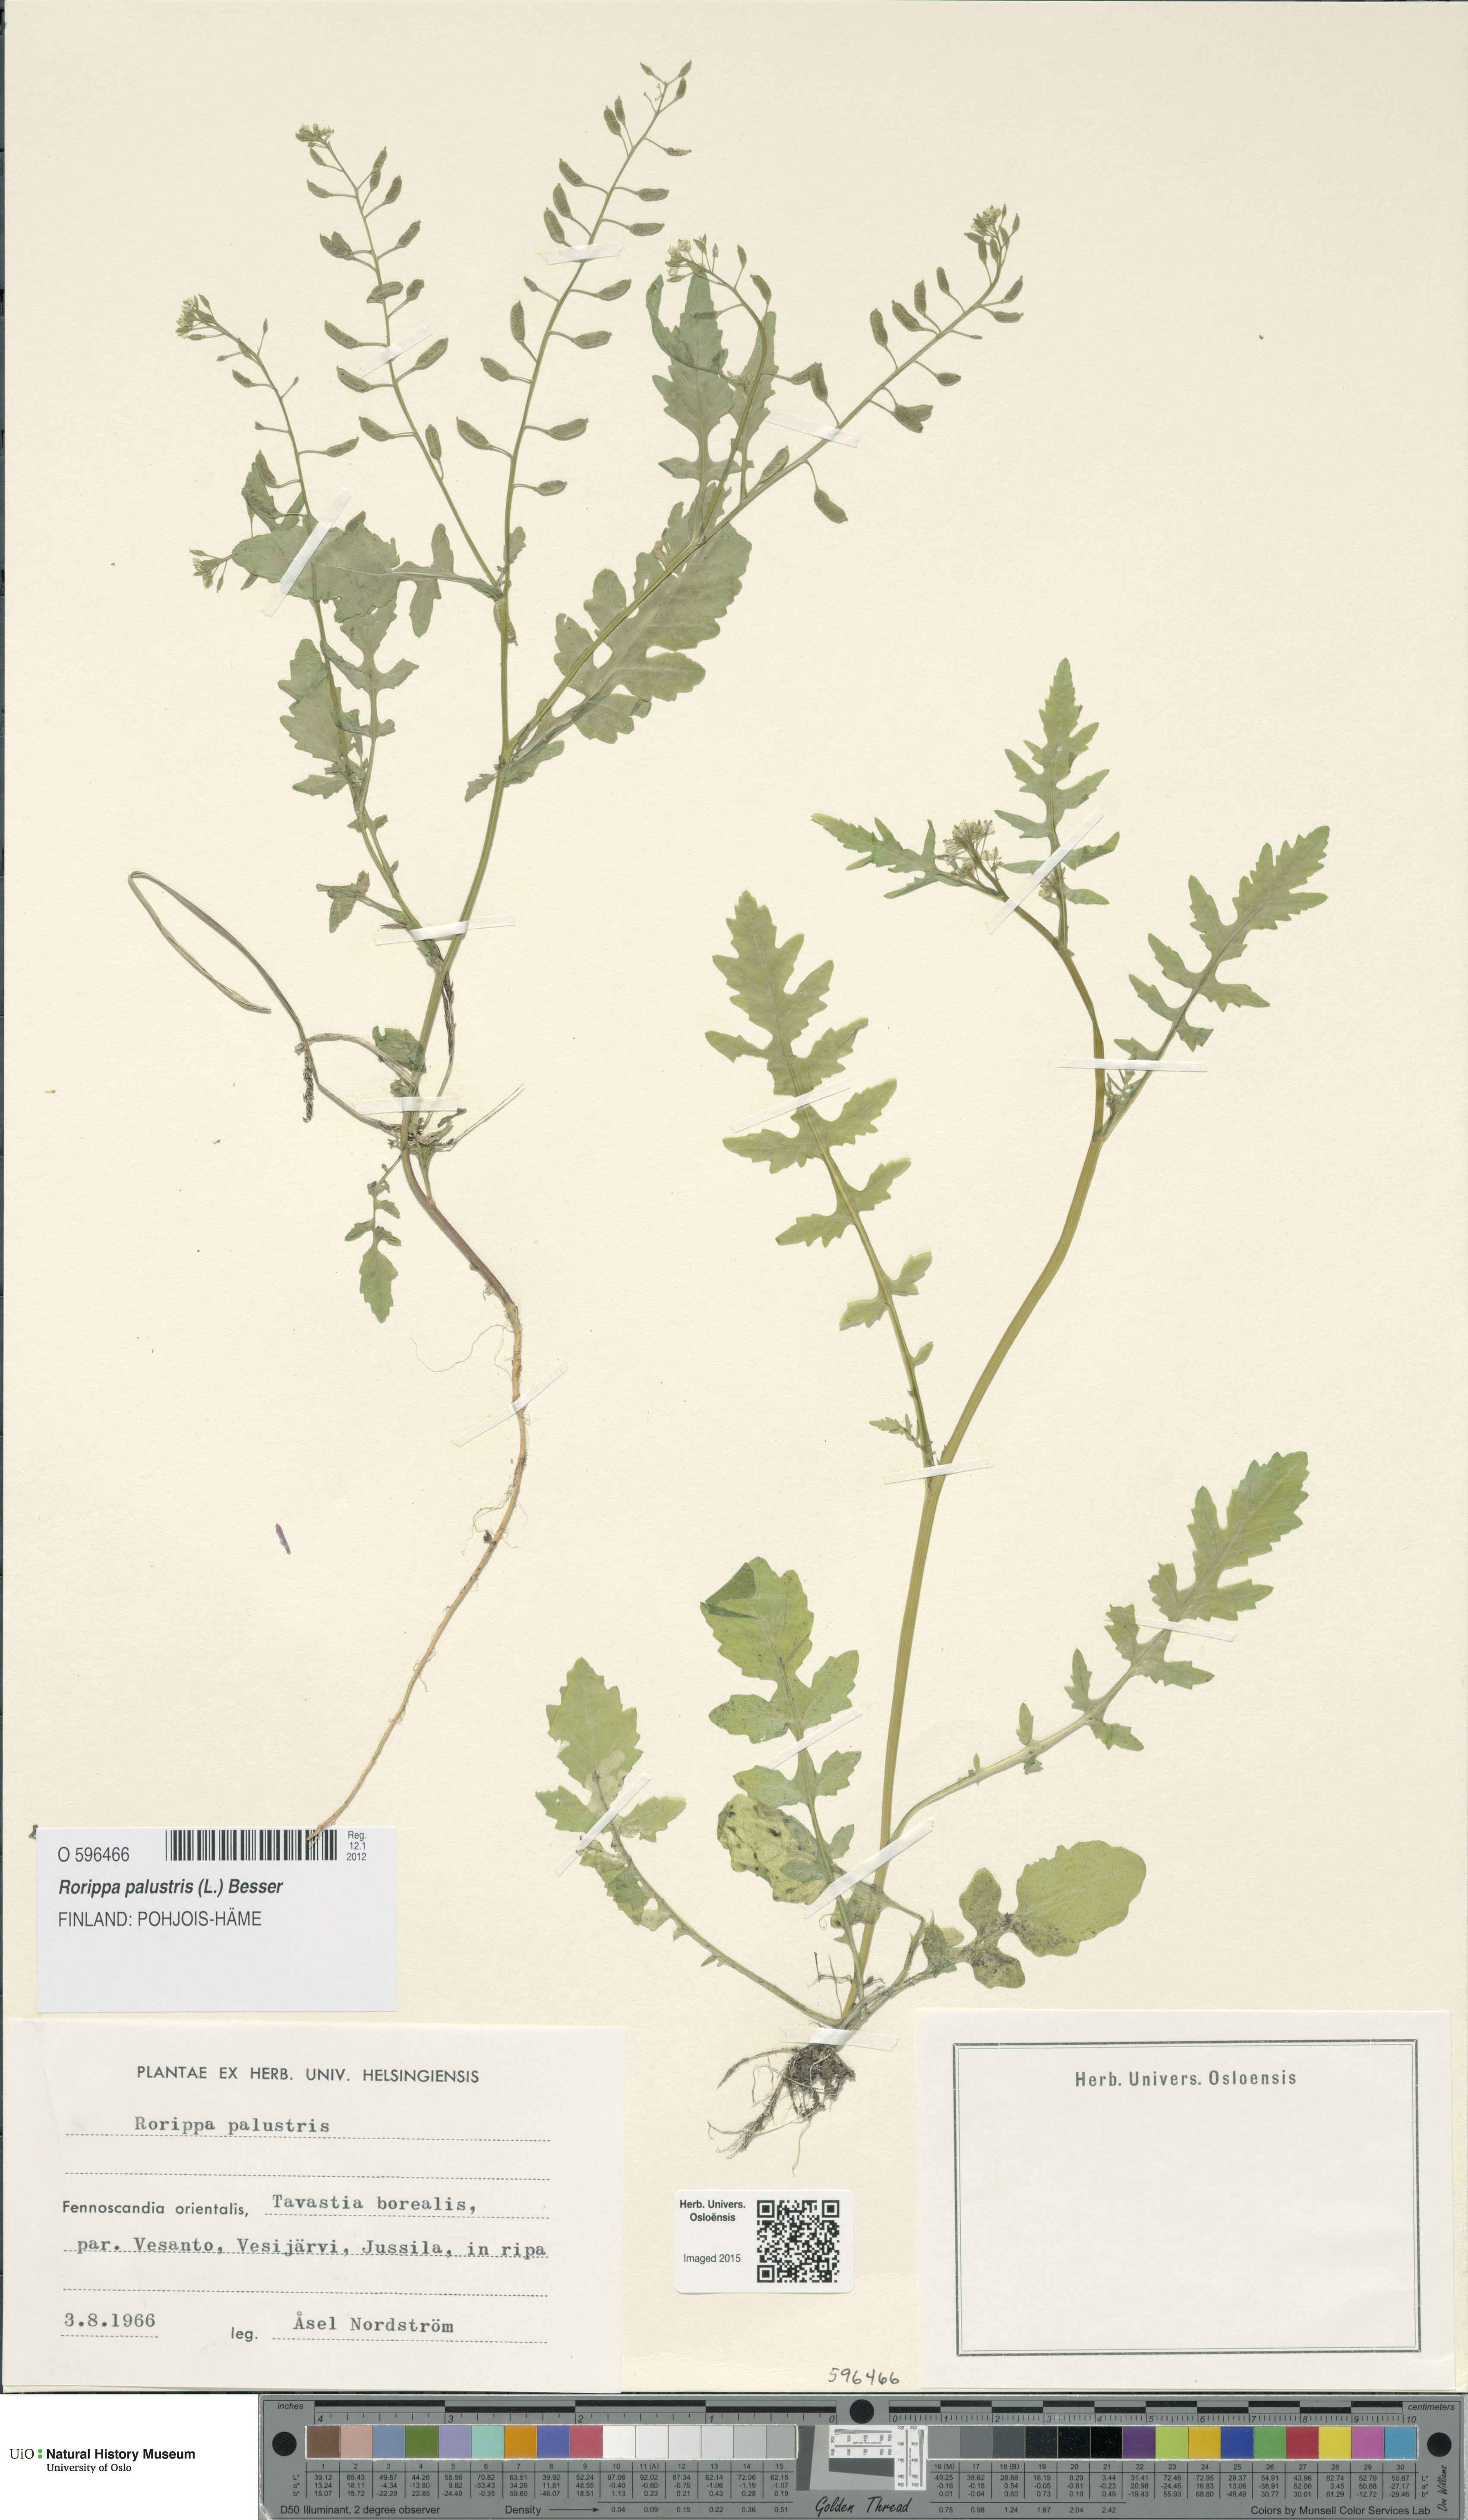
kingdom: Plantae
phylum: Tracheophyta
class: Magnoliopsida
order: Brassicales
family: Brassicaceae
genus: Rorippa
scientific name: Rorippa palustris
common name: Marsh yellow-cress
